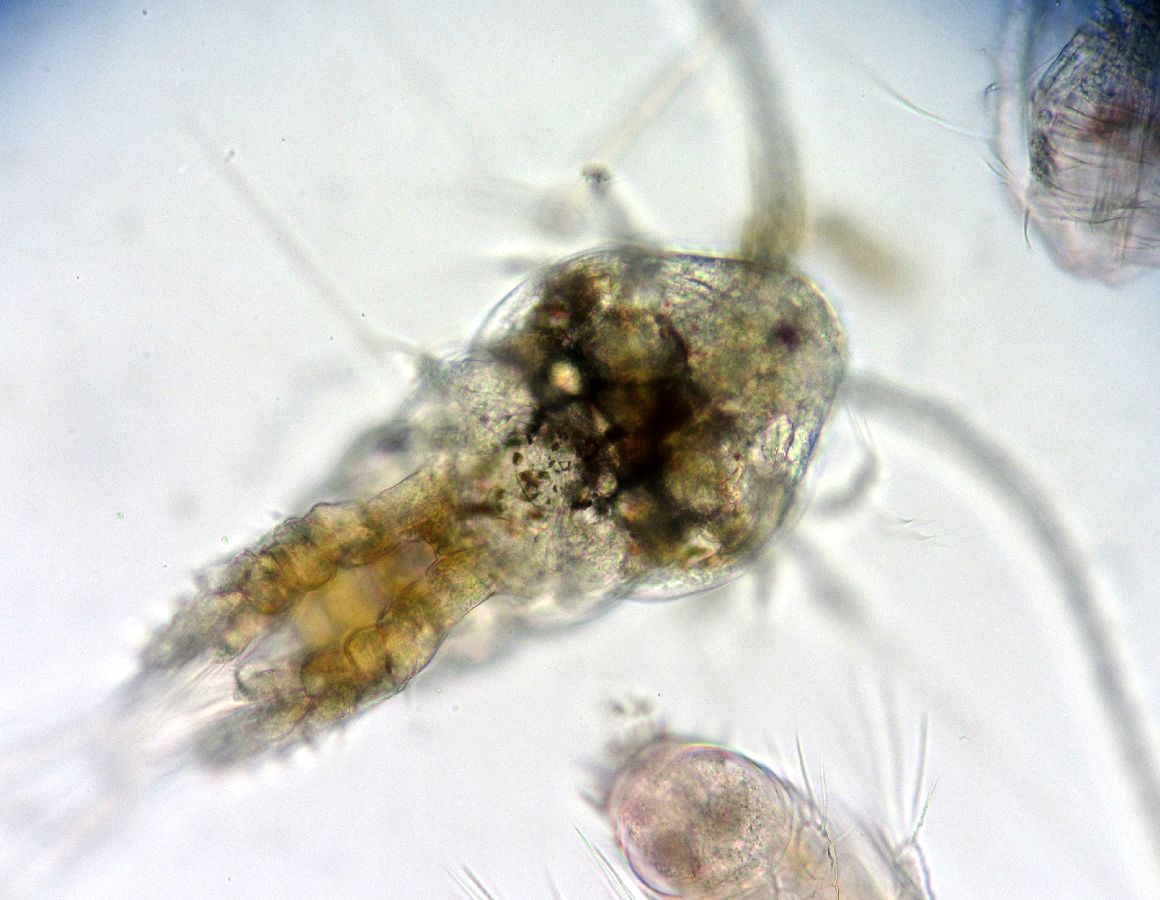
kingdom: Animalia
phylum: Arthropoda
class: Copepoda
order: Calanoida
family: Temoridae
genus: Temora
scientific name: Temora longicornis
